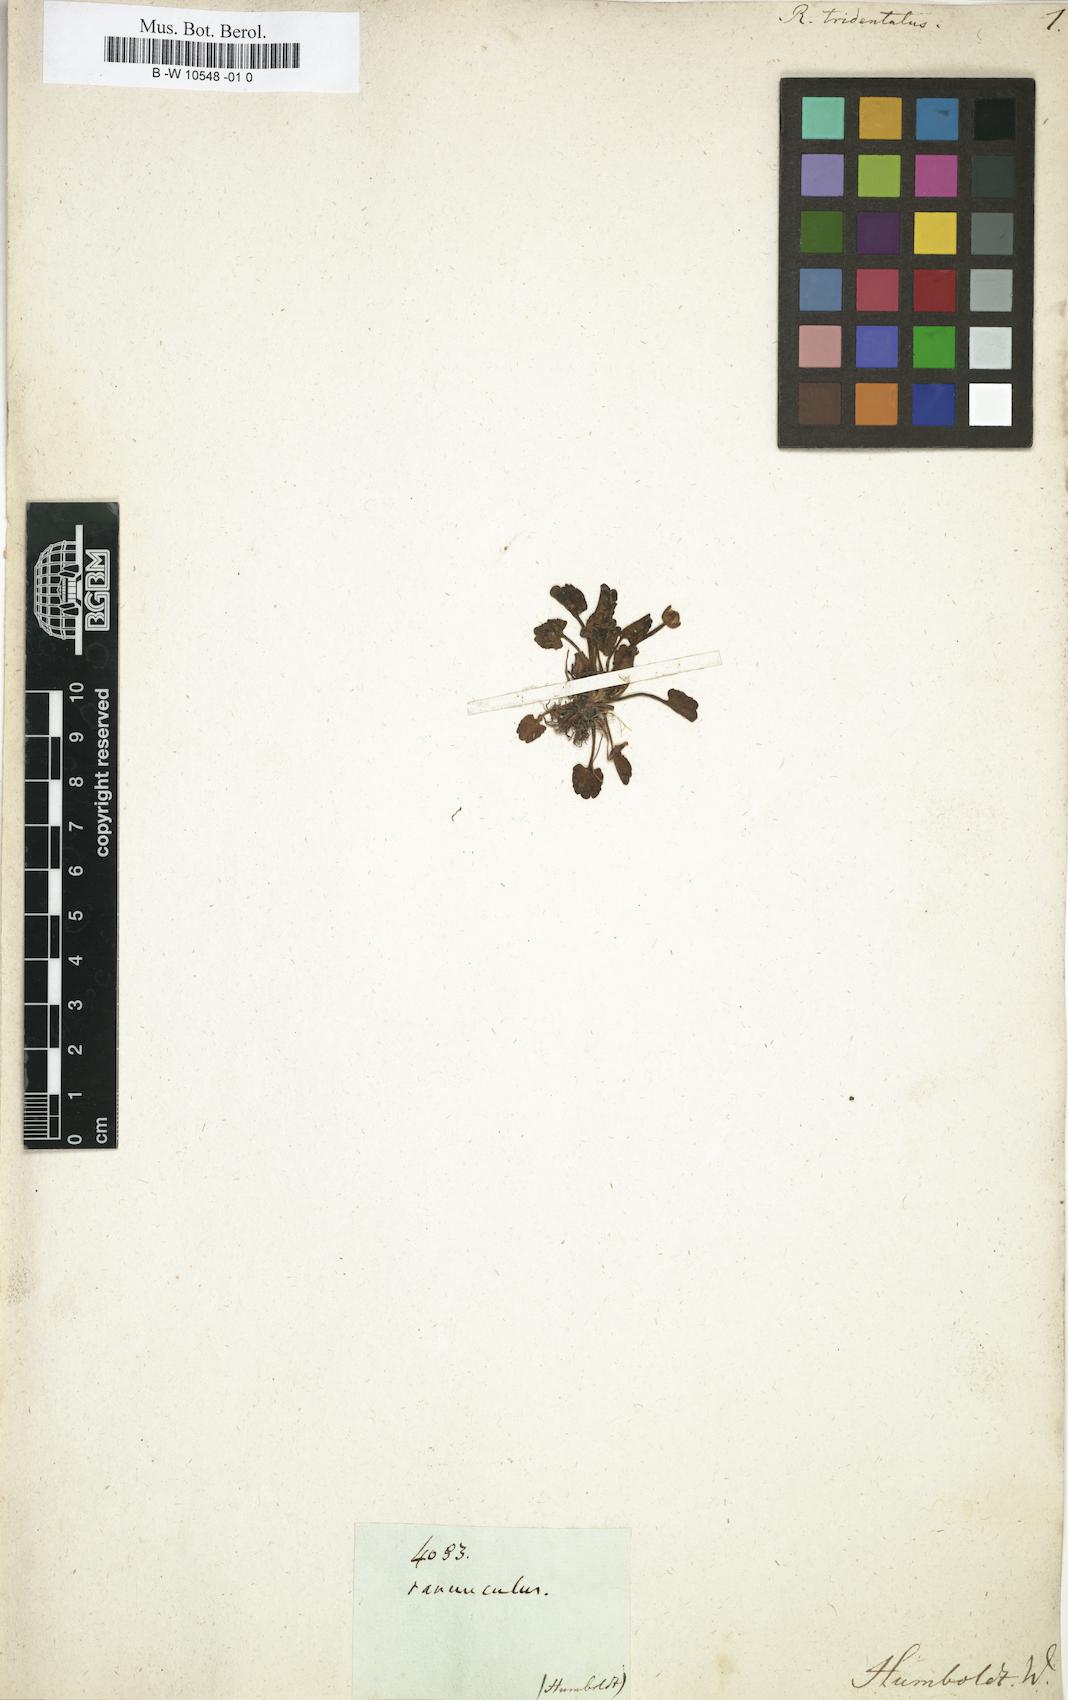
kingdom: Plantae
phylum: Tracheophyta
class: Magnoliopsida
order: Ranunculales
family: Ranunculaceae
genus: Halerpestes
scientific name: Halerpestes cymbalaria
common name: Seaside crowfoot
